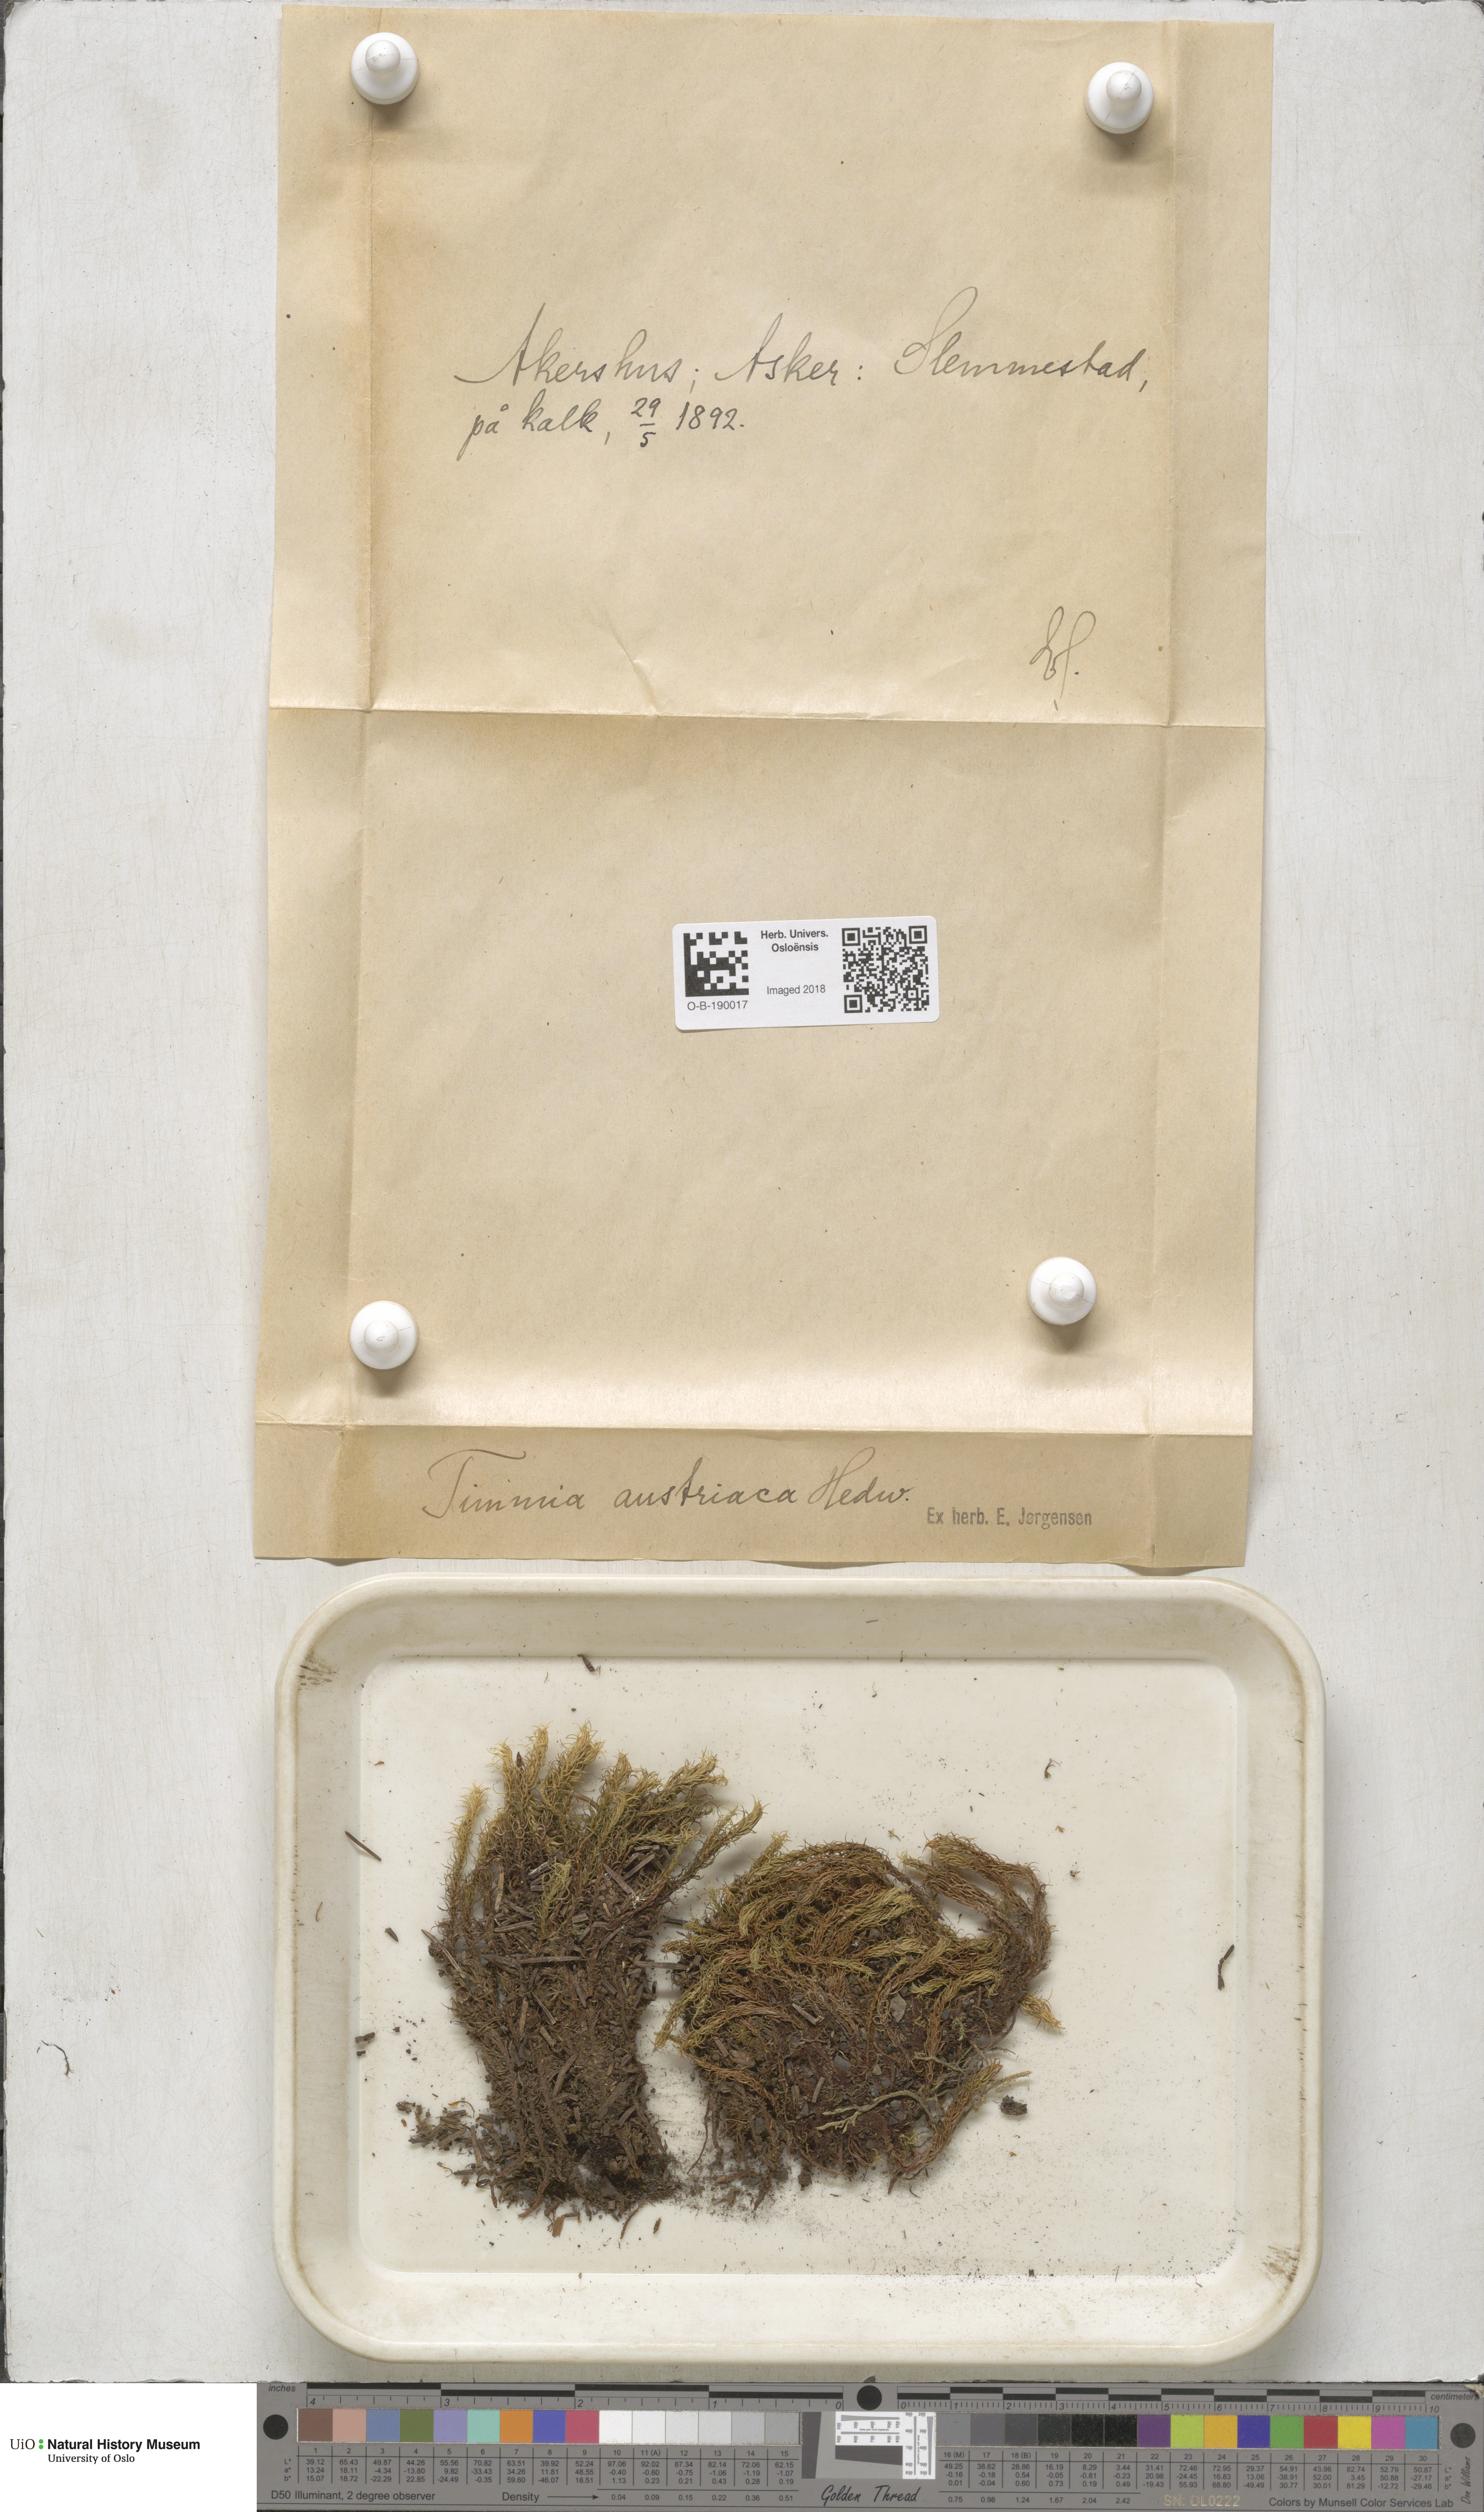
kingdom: Plantae
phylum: Bryophyta
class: Bryopsida
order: Timmiales
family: Timmiaceae
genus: Timmia
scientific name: Timmia austriaca
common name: Austrian timmia
